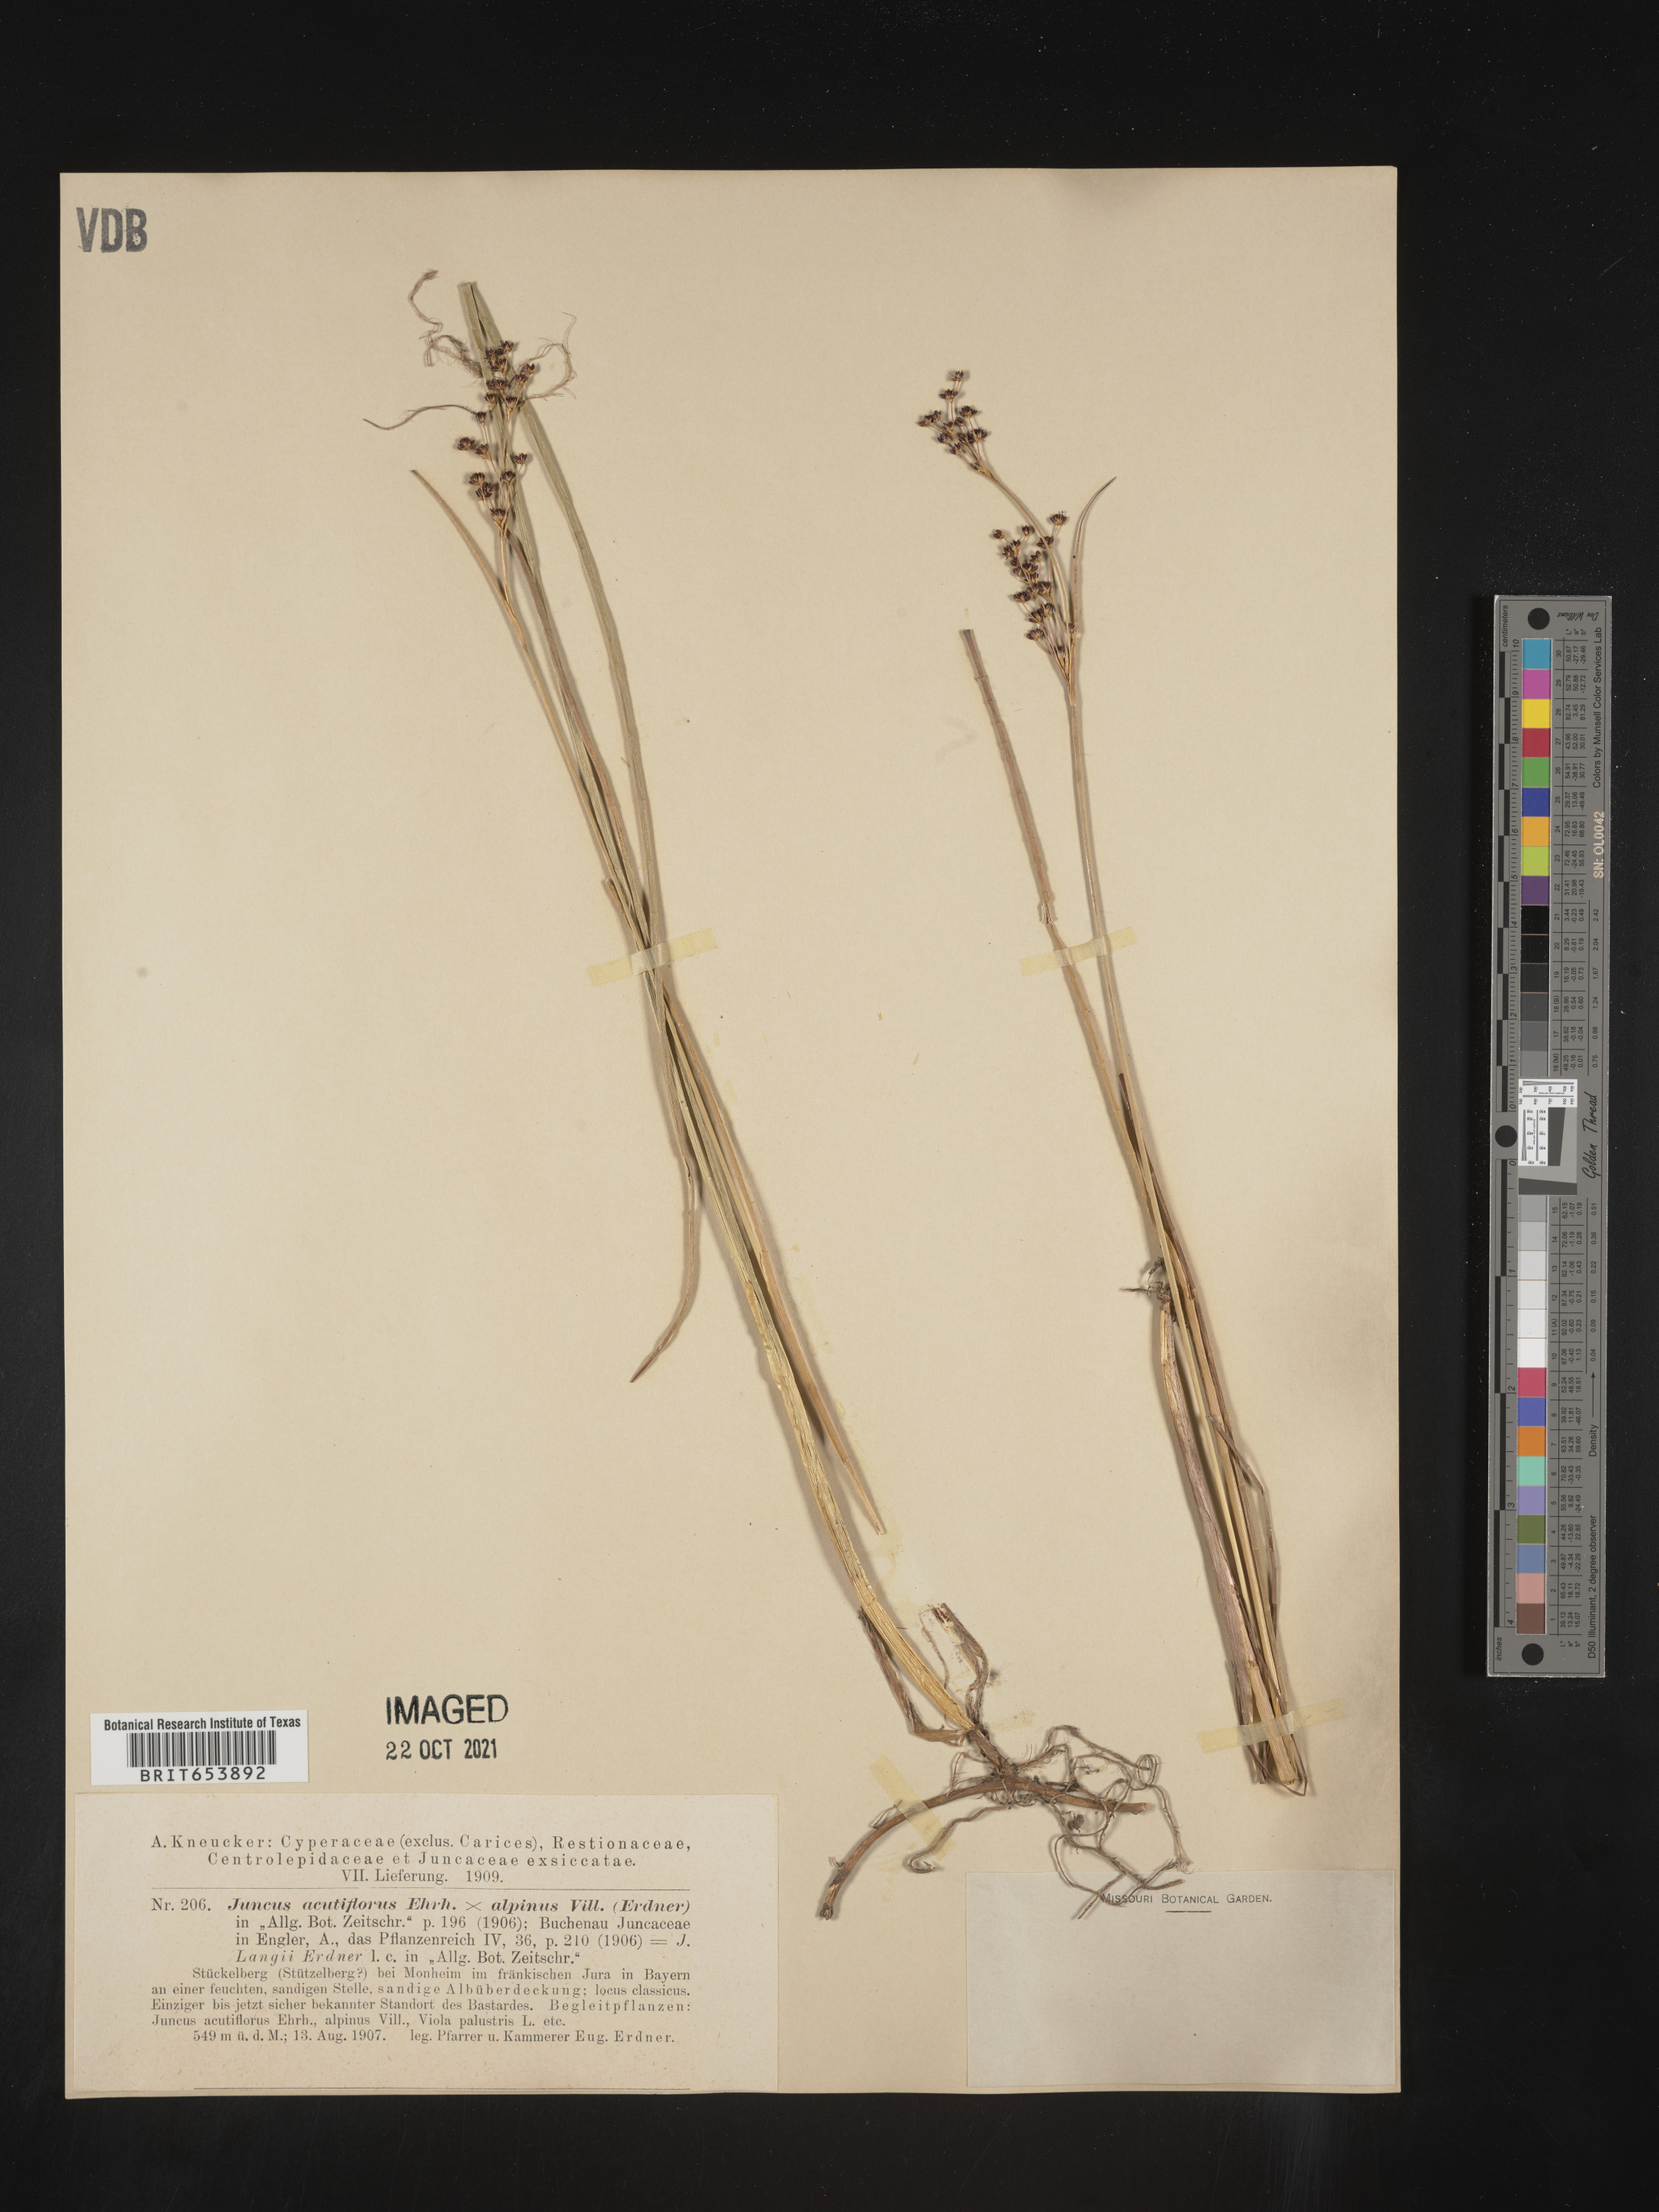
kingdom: Plantae
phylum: Tracheophyta
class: Liliopsida
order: Poales
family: Juncaceae
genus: Juncus
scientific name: Juncus
